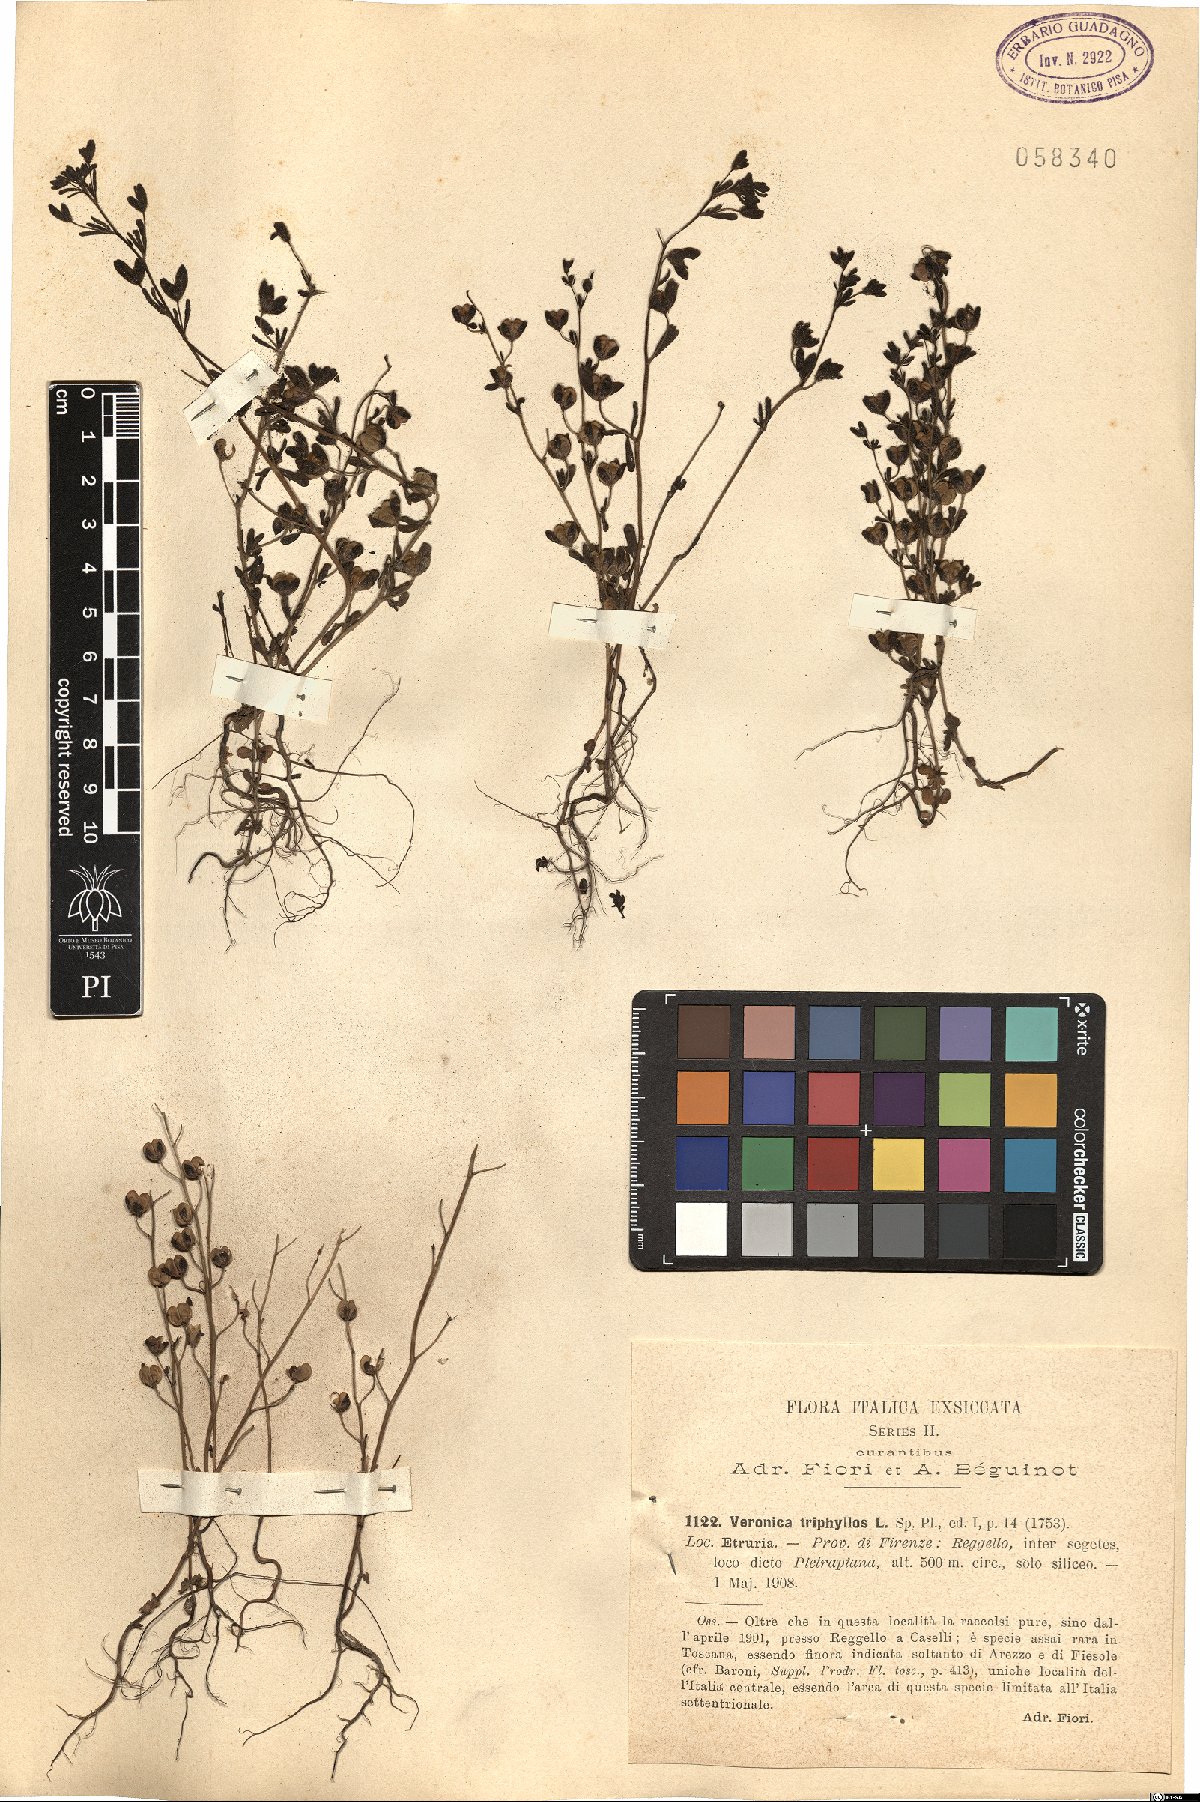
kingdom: Plantae
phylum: Tracheophyta
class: Magnoliopsida
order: Lamiales
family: Plantaginaceae
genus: Veronica
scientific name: Veronica triphyllos
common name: Fingered speedwell
